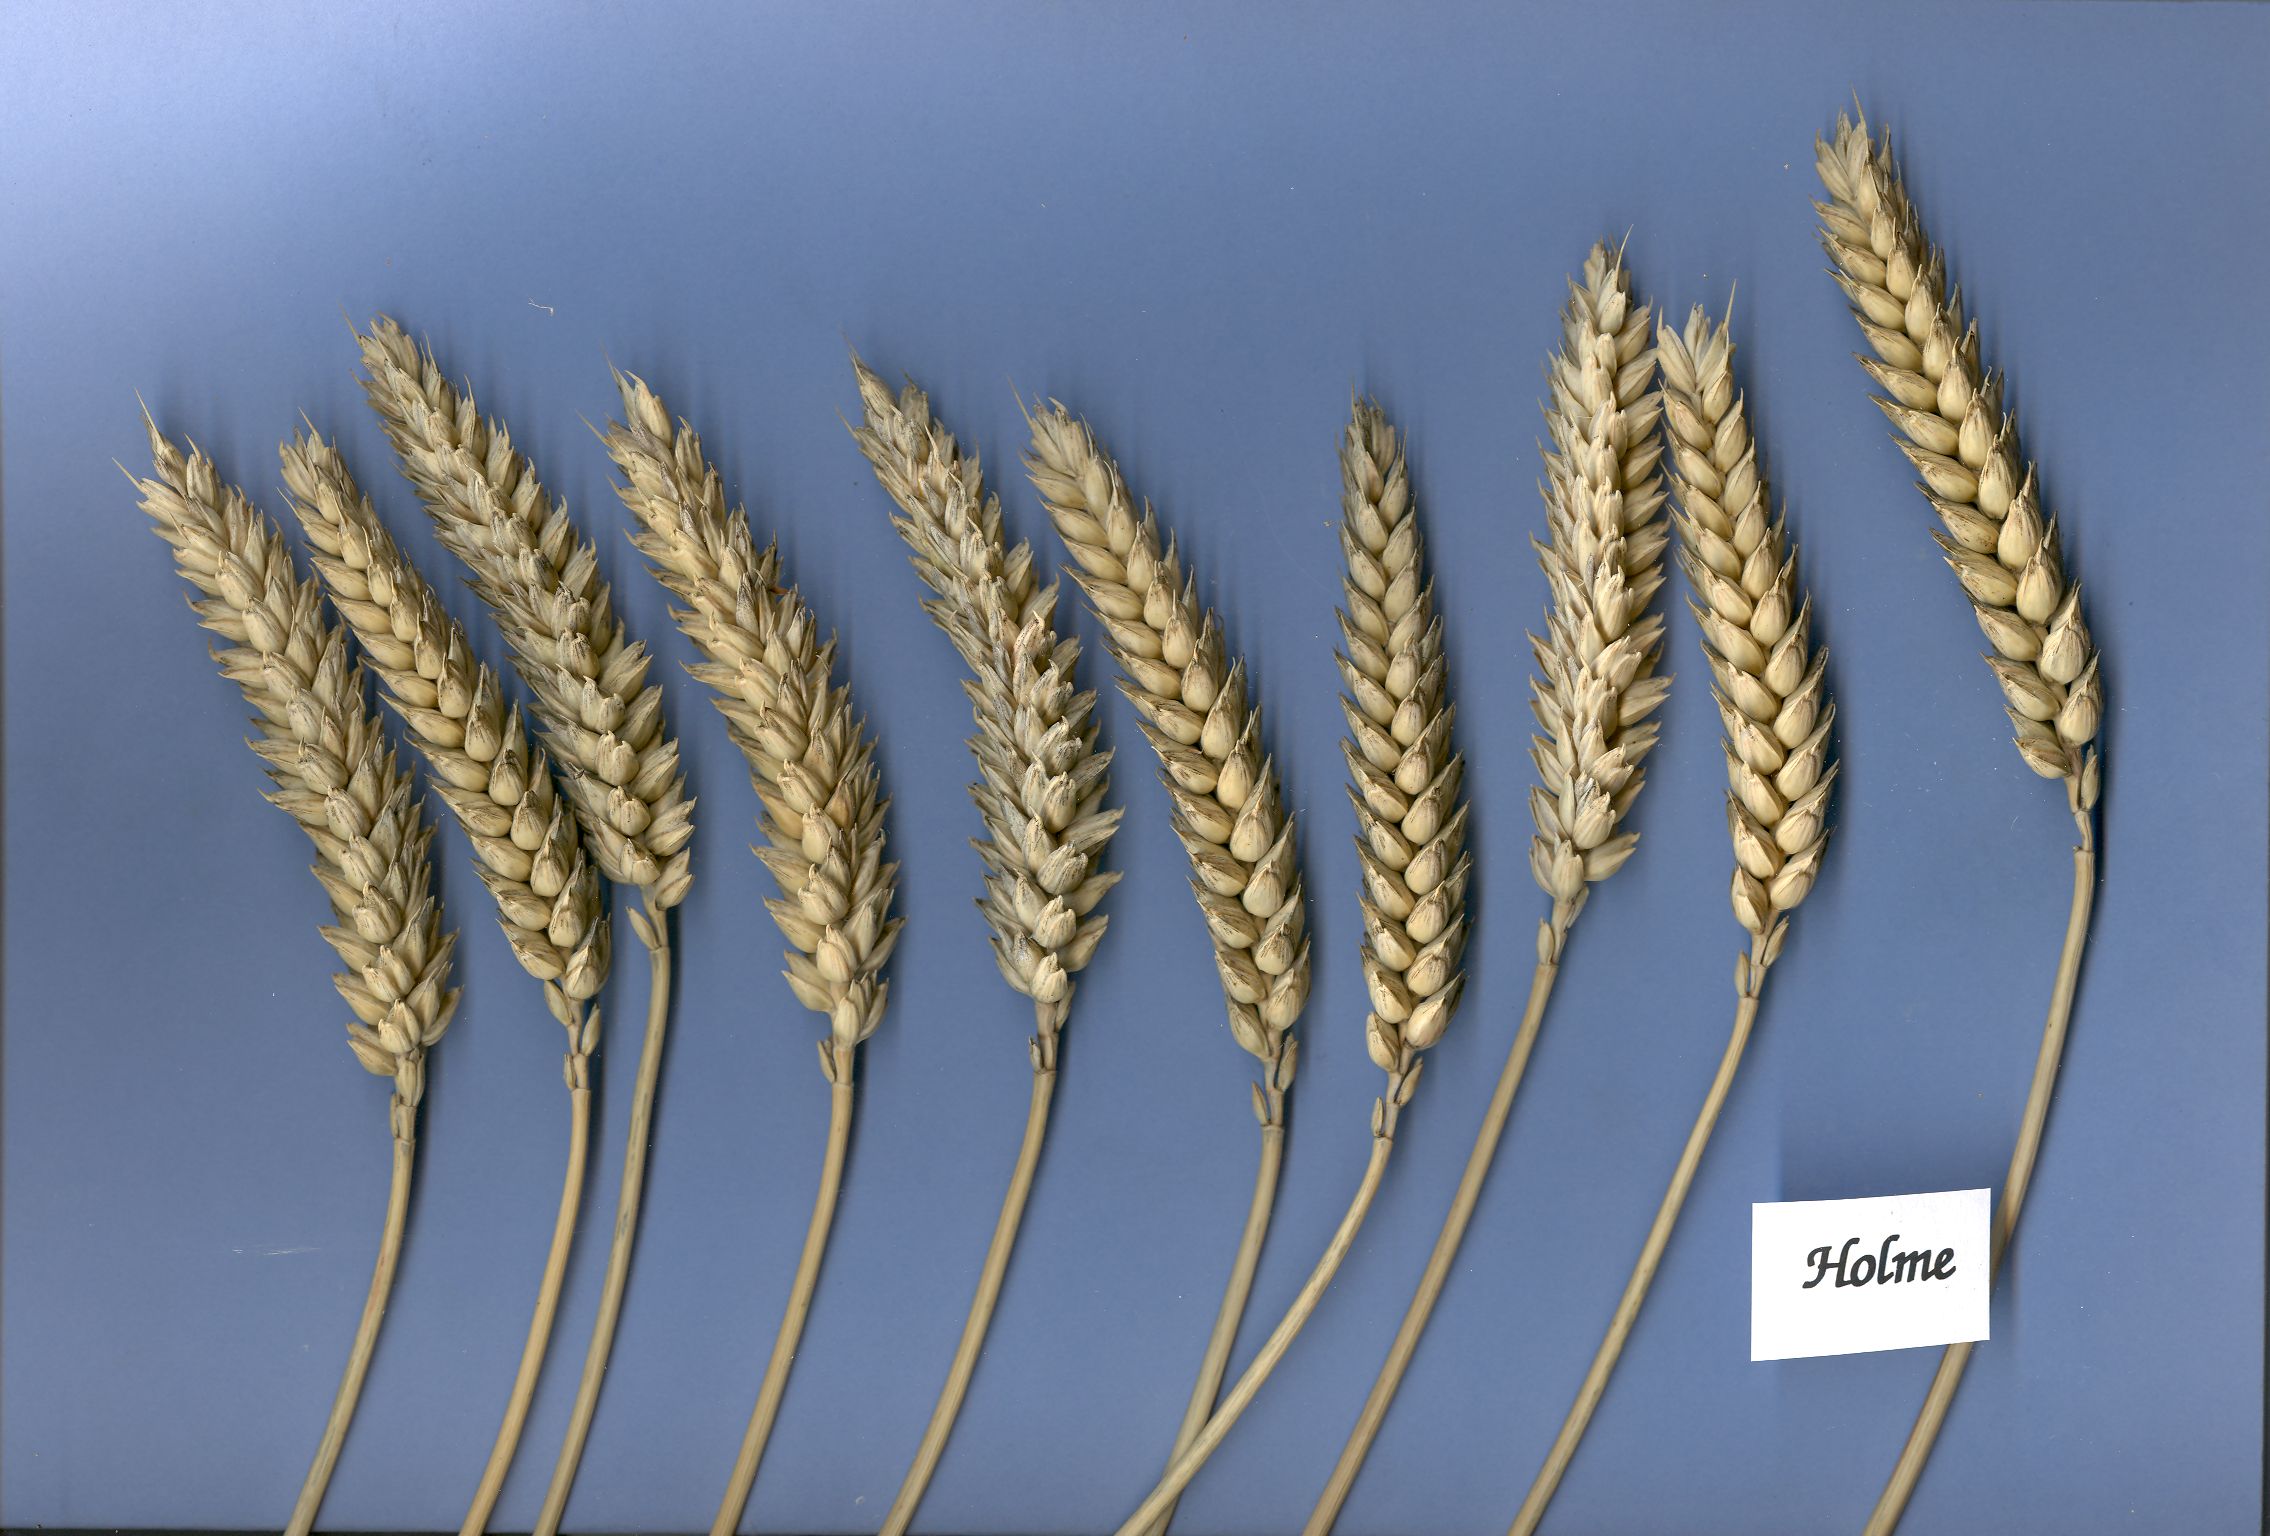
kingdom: Plantae
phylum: Tracheophyta
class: Liliopsida
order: Poales
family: Poaceae
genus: Triticum
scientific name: Triticum aestivum
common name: Common wheat
